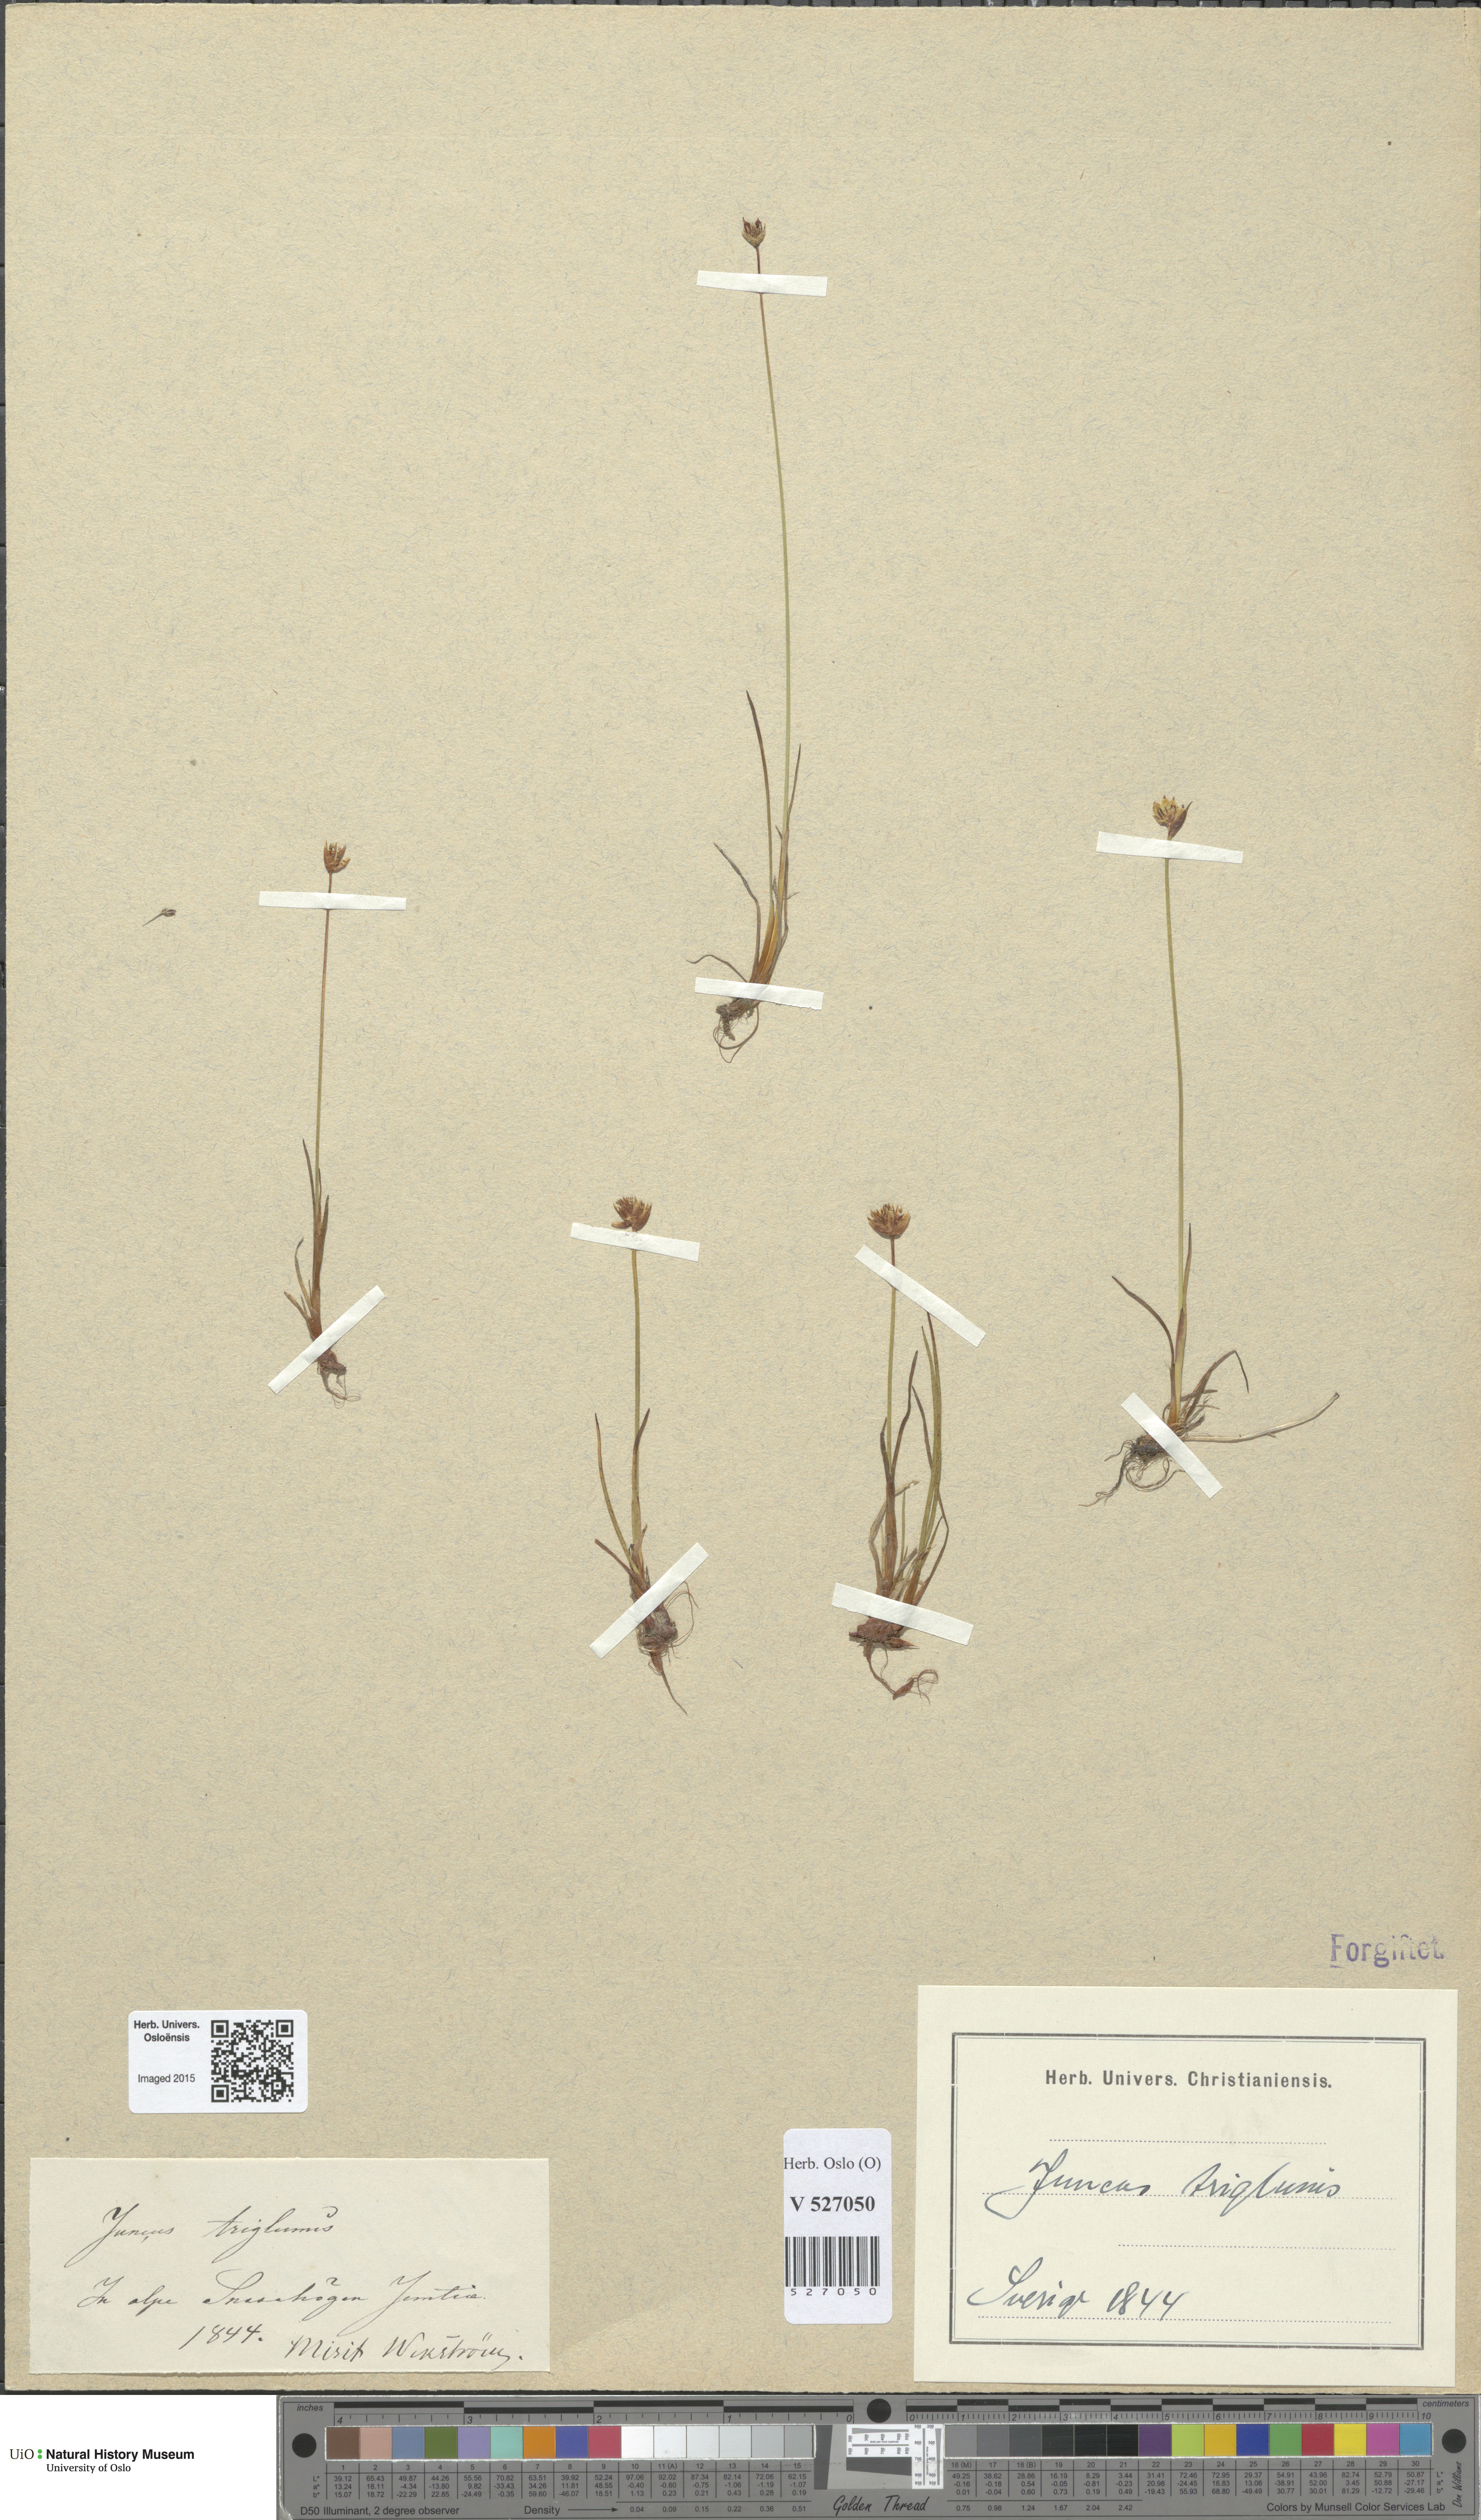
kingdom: Plantae
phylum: Tracheophyta
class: Liliopsida
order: Poales
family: Juncaceae
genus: Juncus
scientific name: Juncus triglumis
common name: Three-flowered rush
